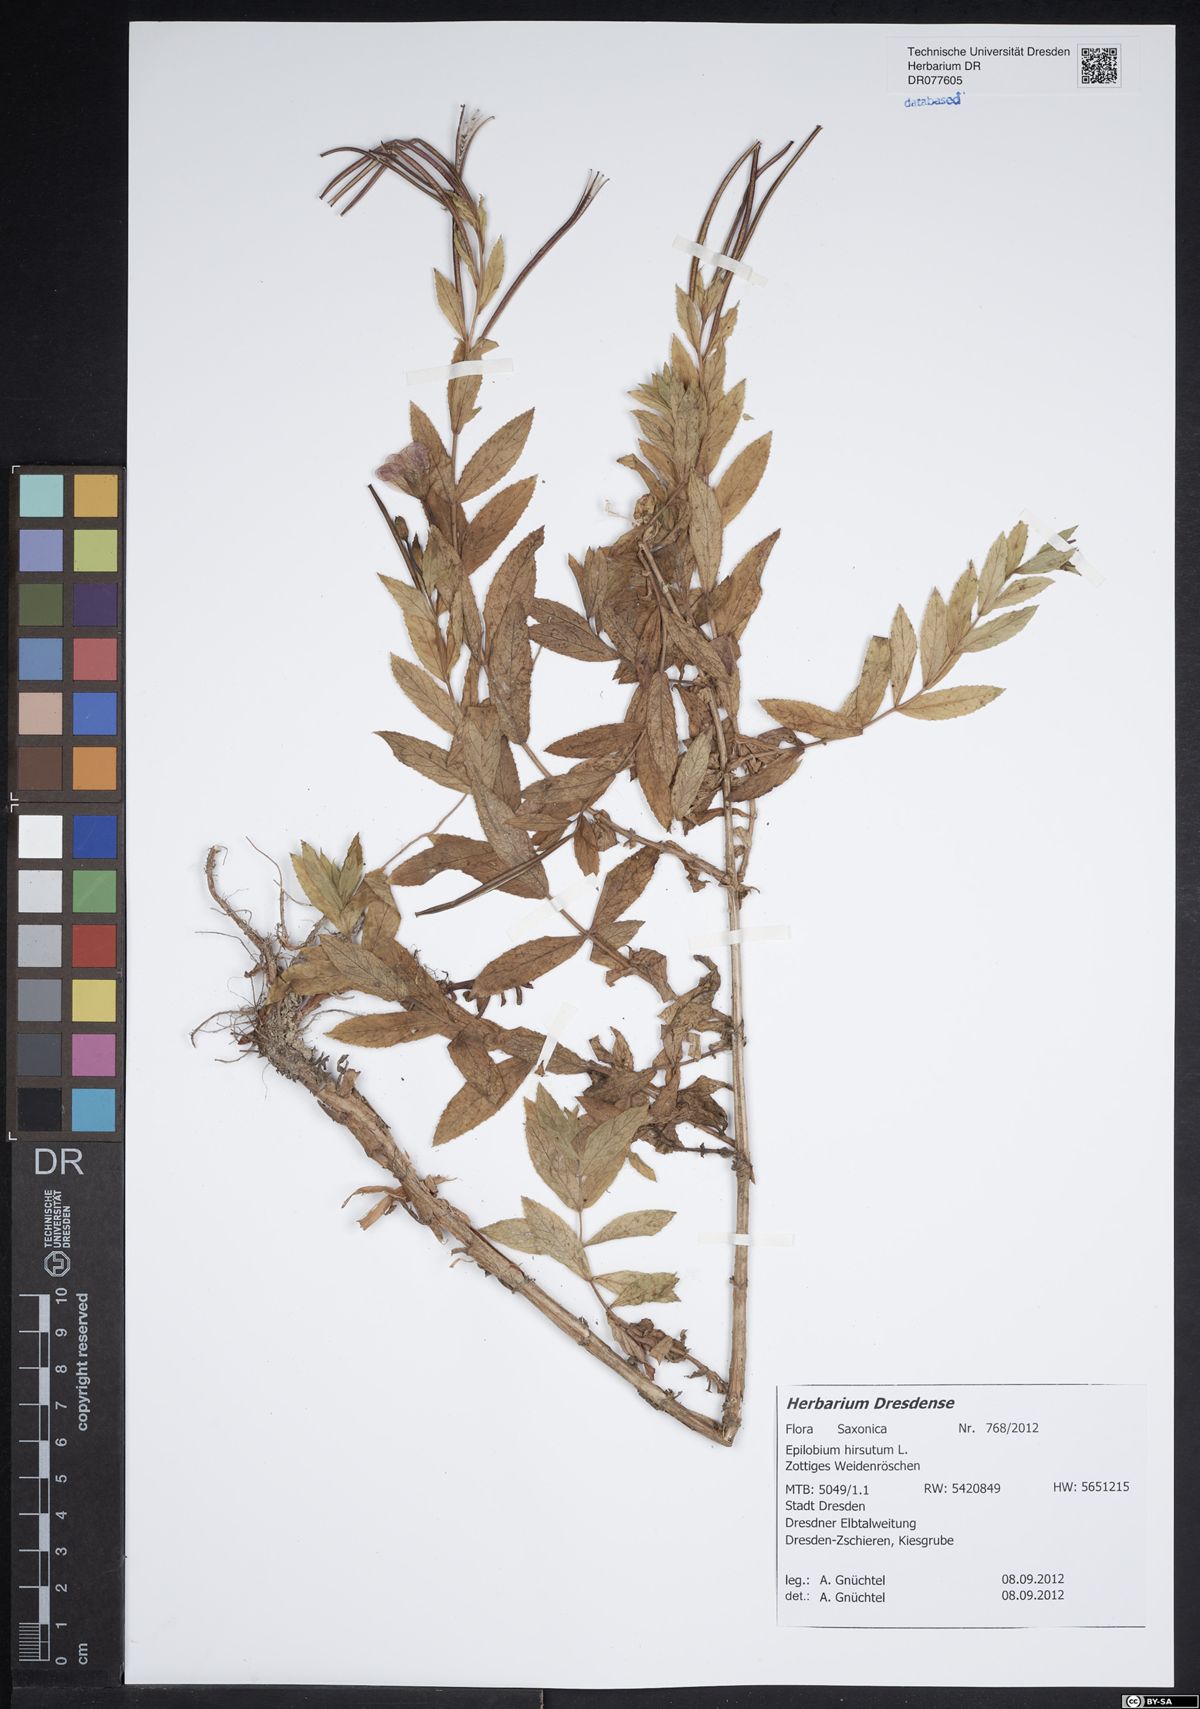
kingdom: Plantae
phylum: Tracheophyta
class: Magnoliopsida
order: Myrtales
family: Onagraceae
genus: Epilobium
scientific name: Epilobium hirsutum
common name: Great willowherb
